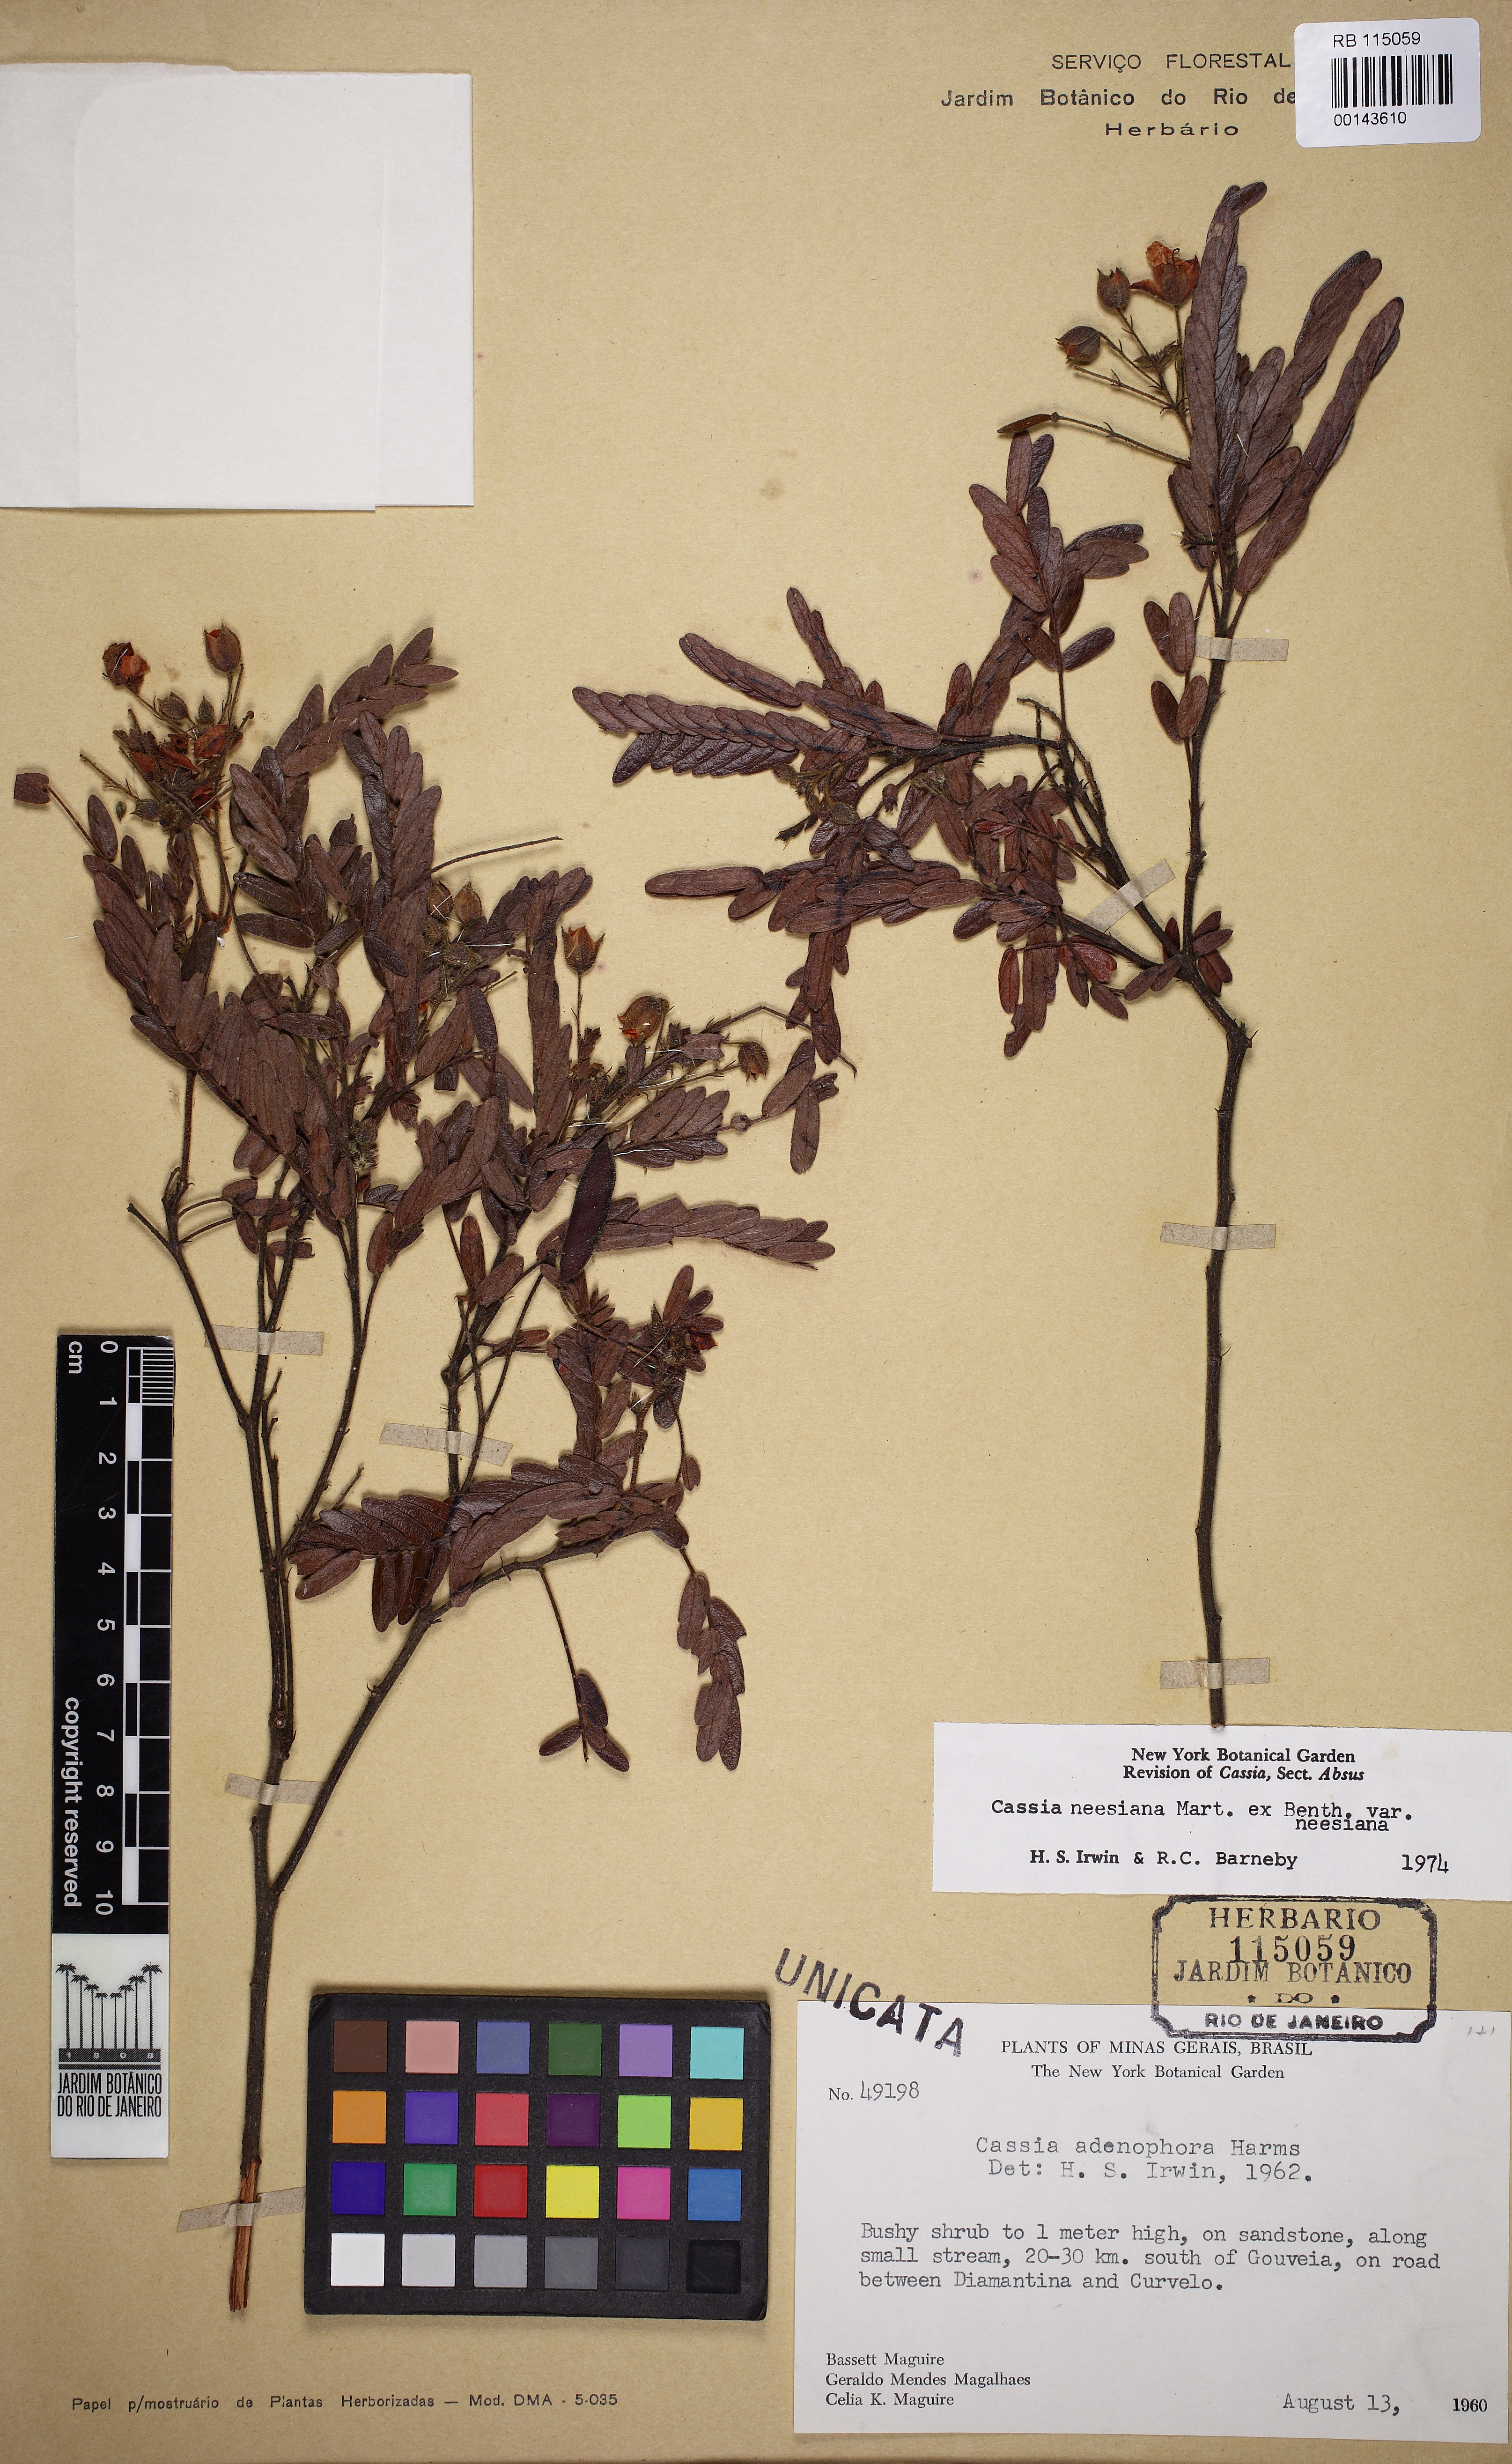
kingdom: Plantae
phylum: Tracheophyta
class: Magnoliopsida
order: Fabales
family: Fabaceae
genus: Chamaecrista
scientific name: Chamaecrista neesiana
